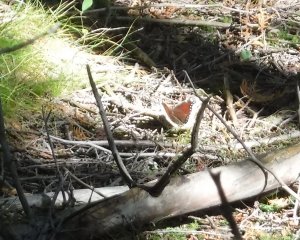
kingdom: Animalia
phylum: Arthropoda
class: Insecta
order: Lepidoptera
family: Nymphalidae
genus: Nymphalis
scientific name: Nymphalis antiopa
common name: Mourning Cloak
